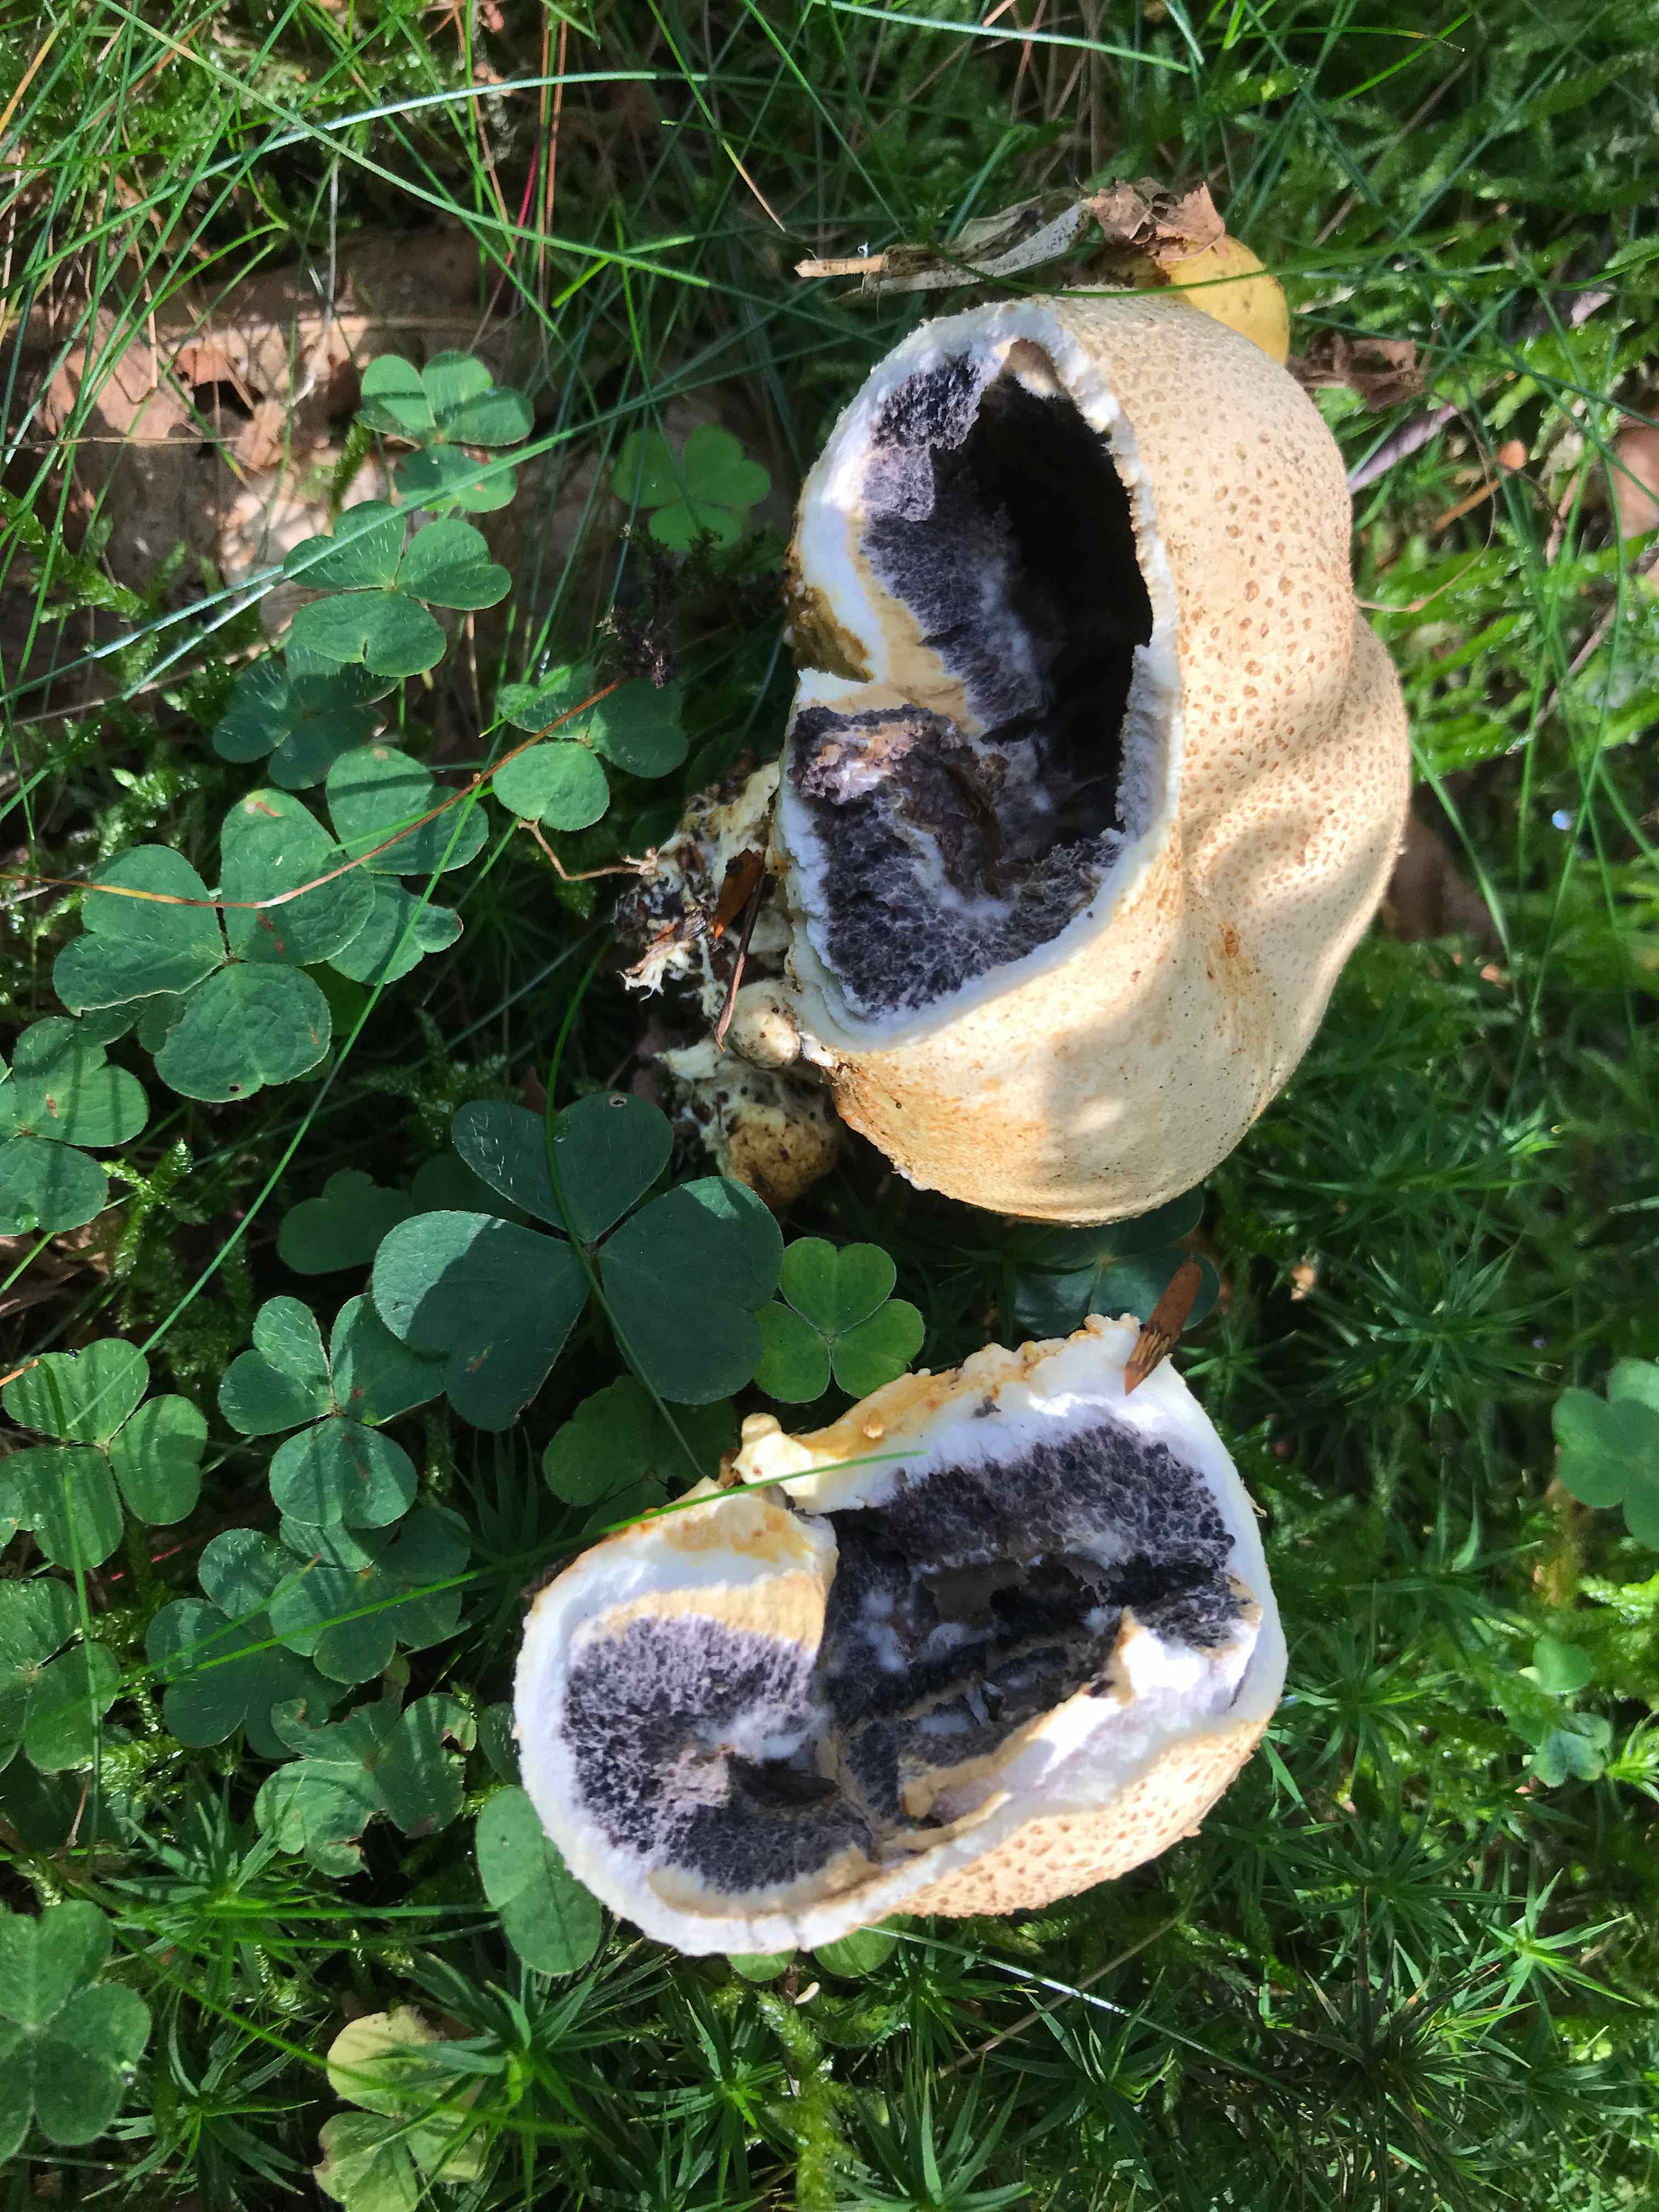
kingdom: Fungi
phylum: Basidiomycota
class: Agaricomycetes
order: Boletales
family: Sclerodermataceae
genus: Scleroderma
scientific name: Scleroderma citrinum
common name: almindelig bruskbold
